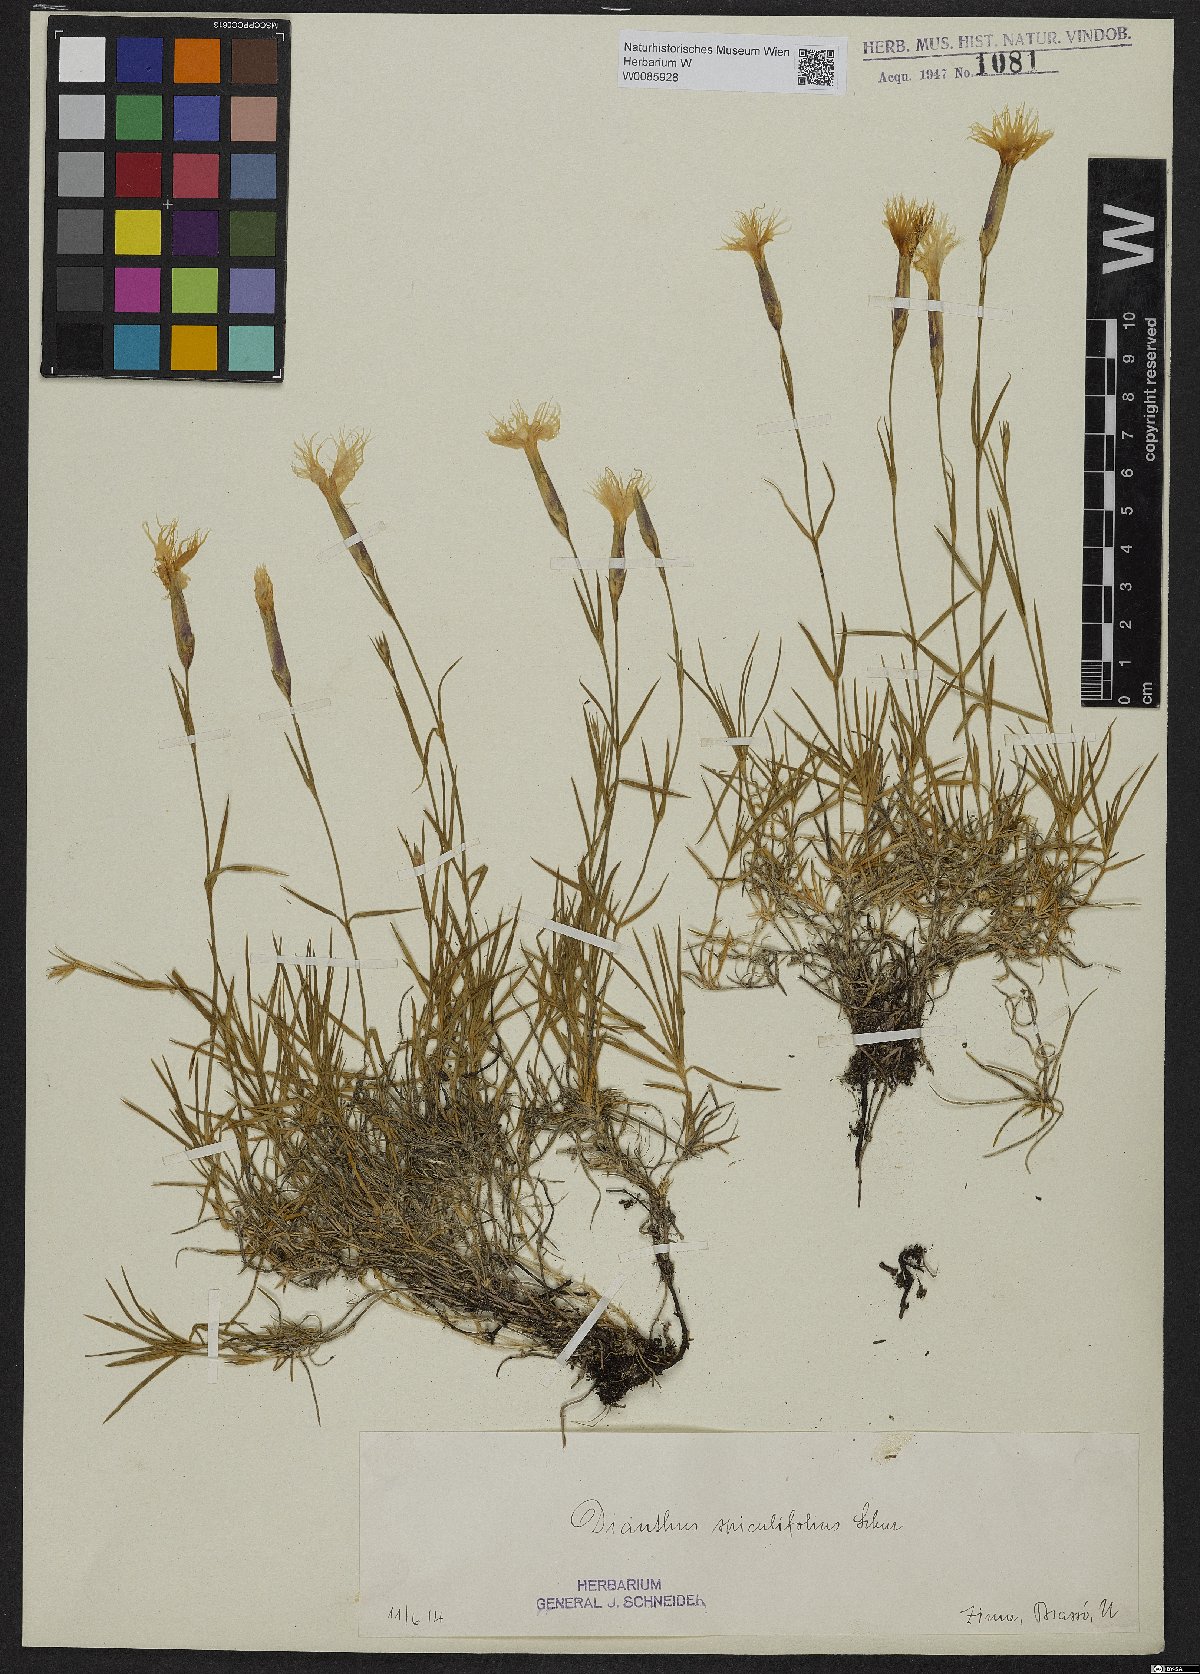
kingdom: Plantae
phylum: Tracheophyta
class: Magnoliopsida
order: Caryophyllales
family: Caryophyllaceae
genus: Dianthus
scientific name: Dianthus spiculifolius
